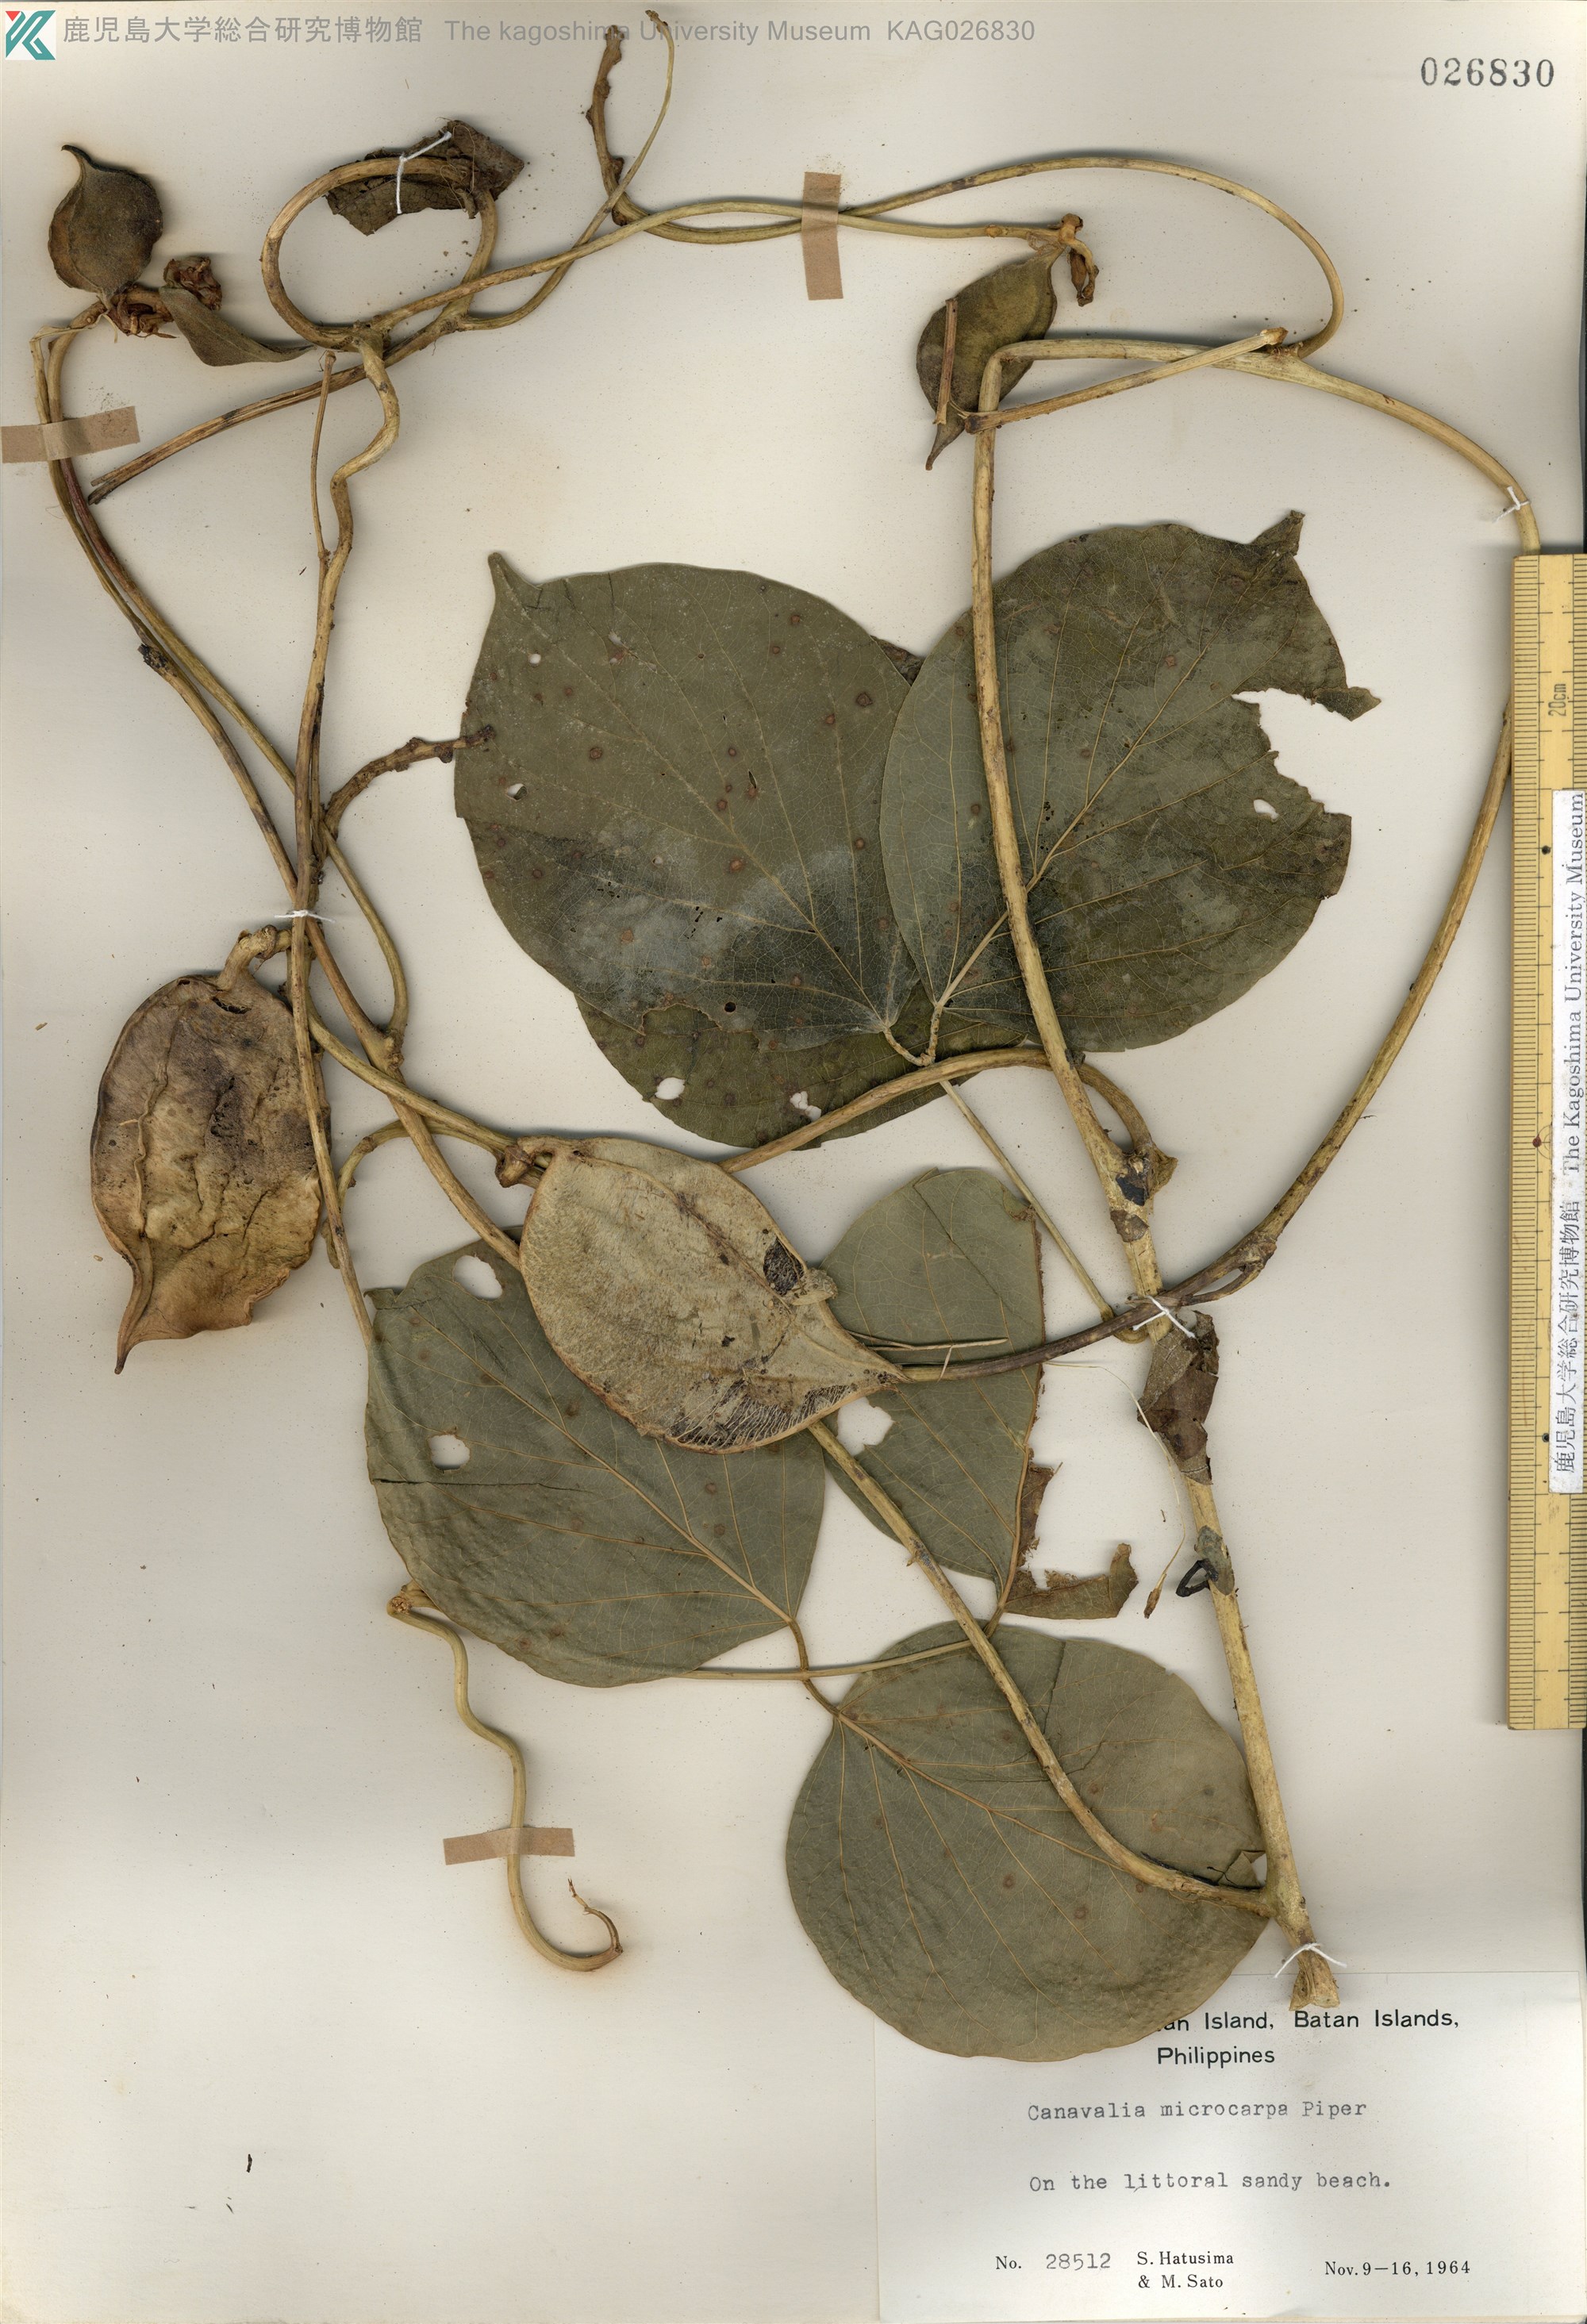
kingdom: Plantae
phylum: Tracheophyta
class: Magnoliopsida
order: Fabales
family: Fabaceae
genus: Canavalia
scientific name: Canavalia cathartica
